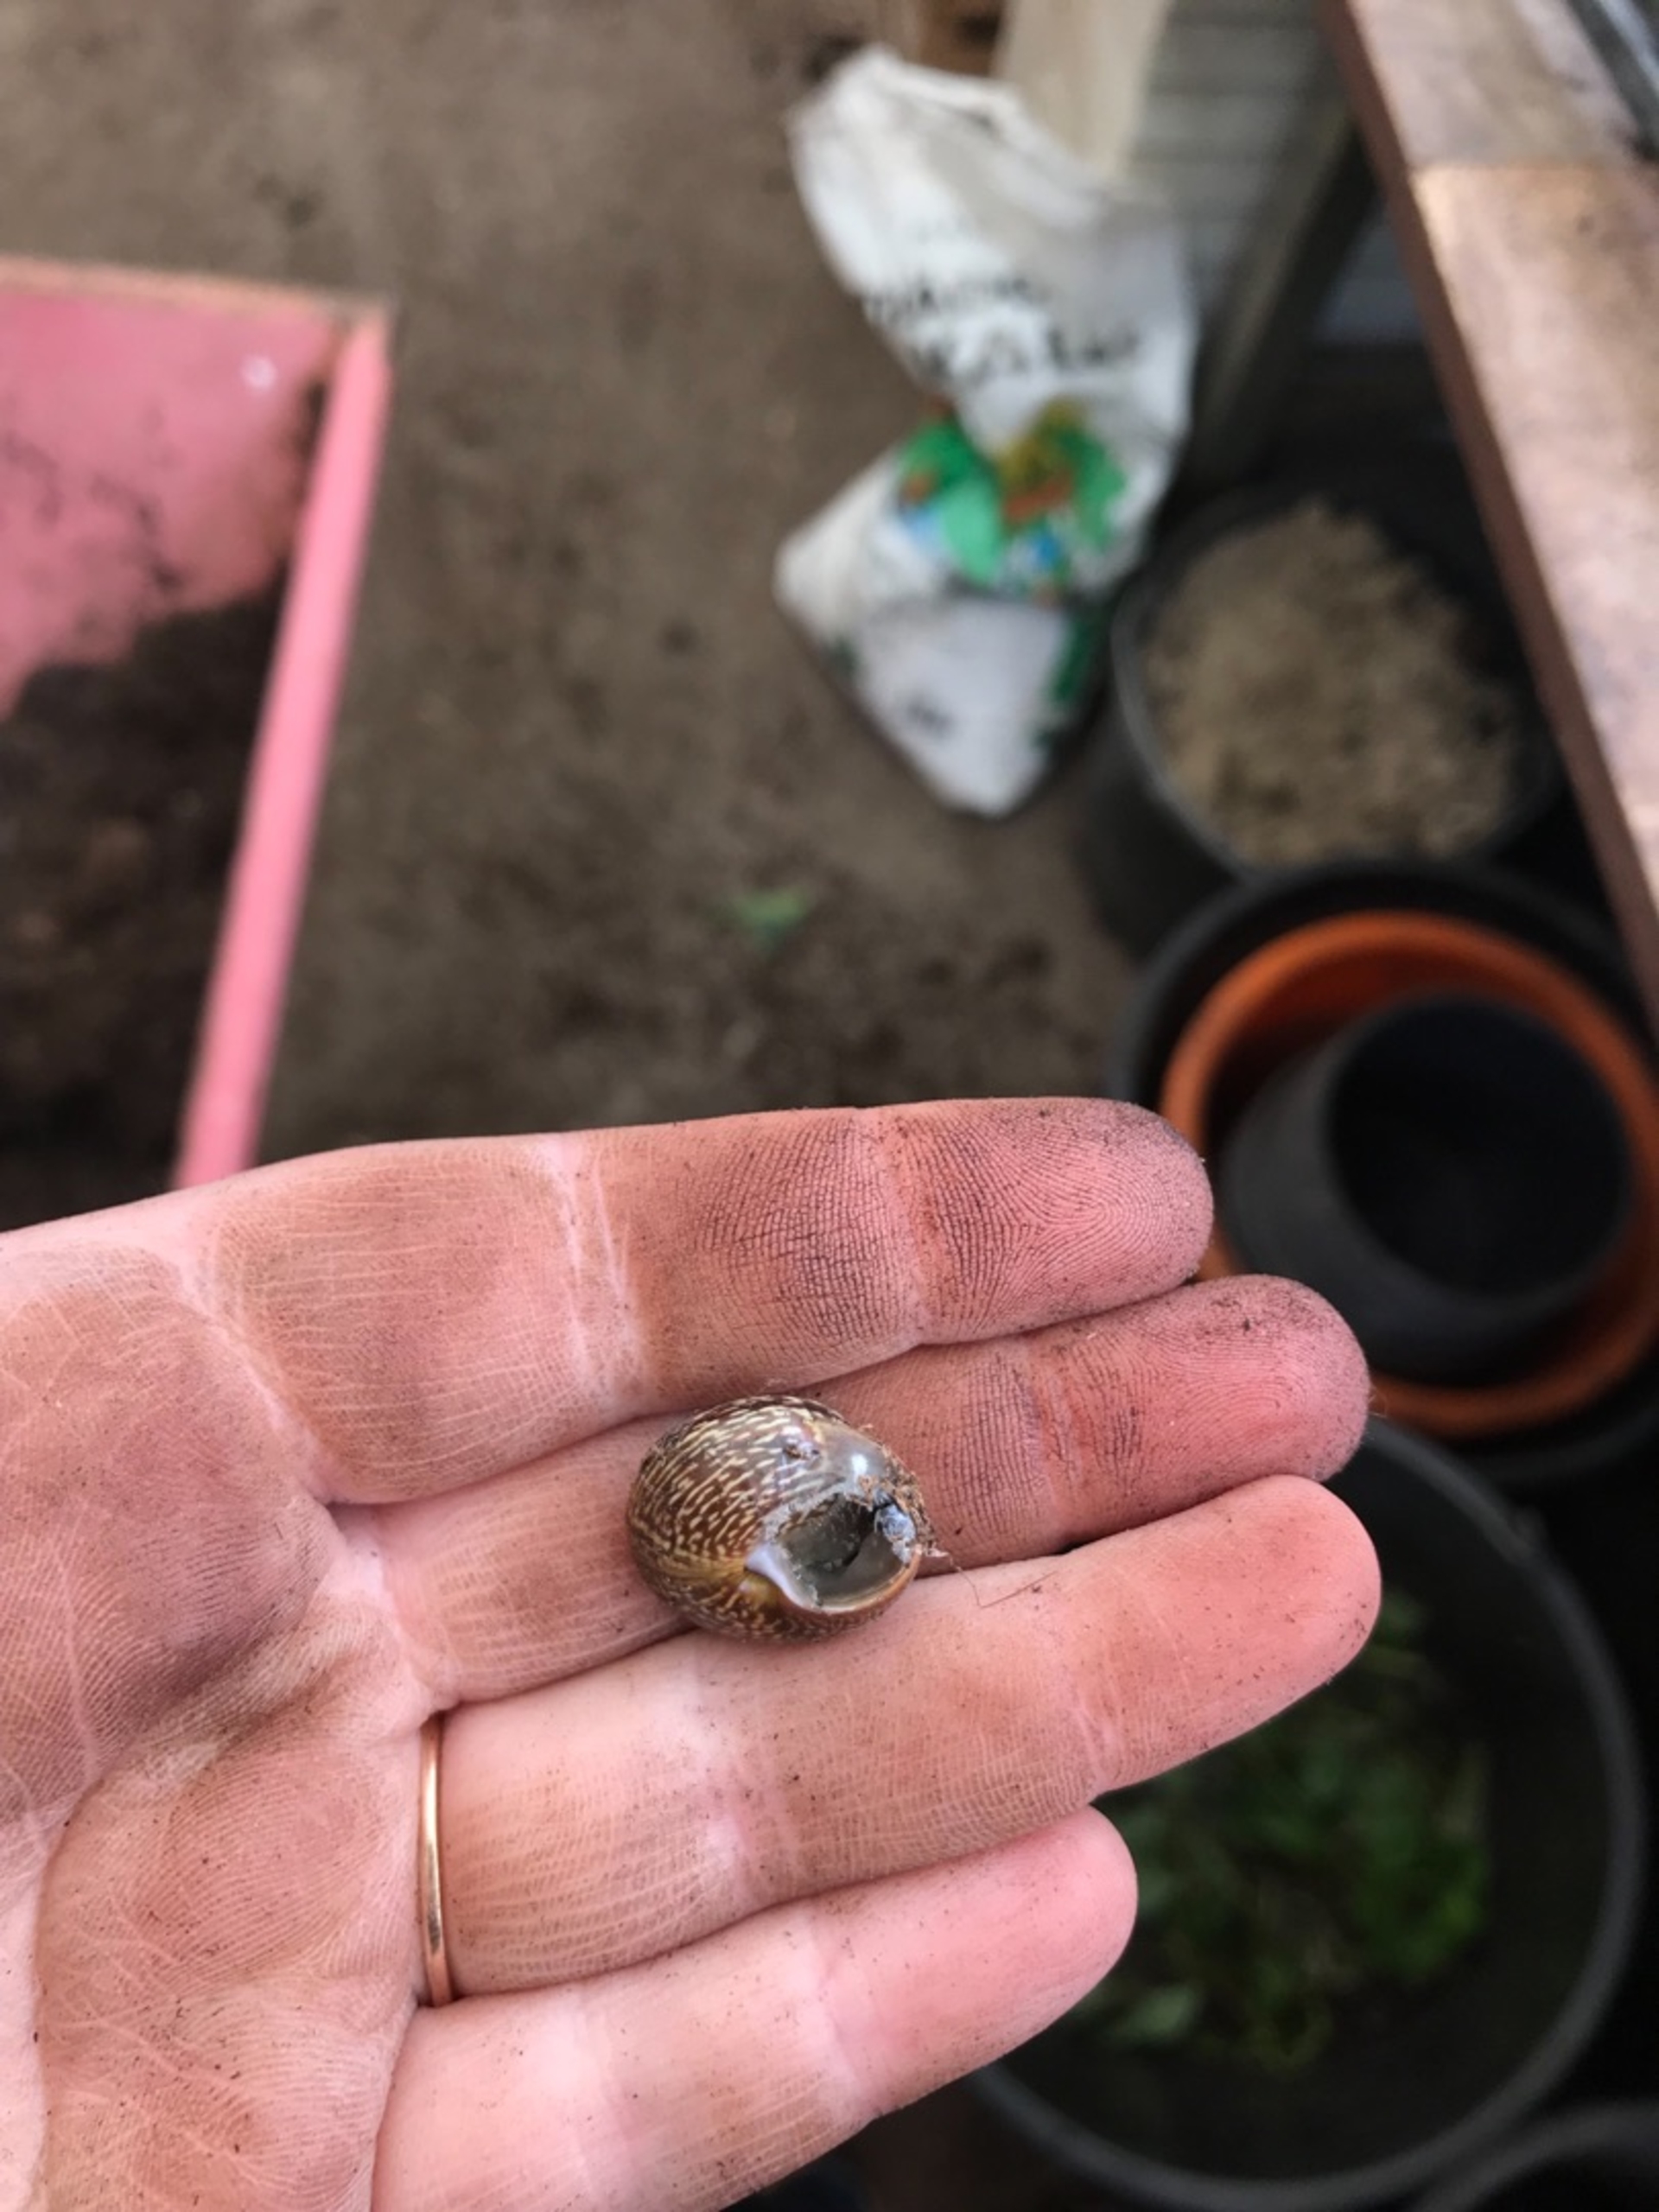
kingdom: Animalia
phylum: Mollusca
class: Gastropoda
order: Stylommatophora
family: Helicidae
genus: Arianta
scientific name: Arianta arbustorum
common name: Kratsnegl
